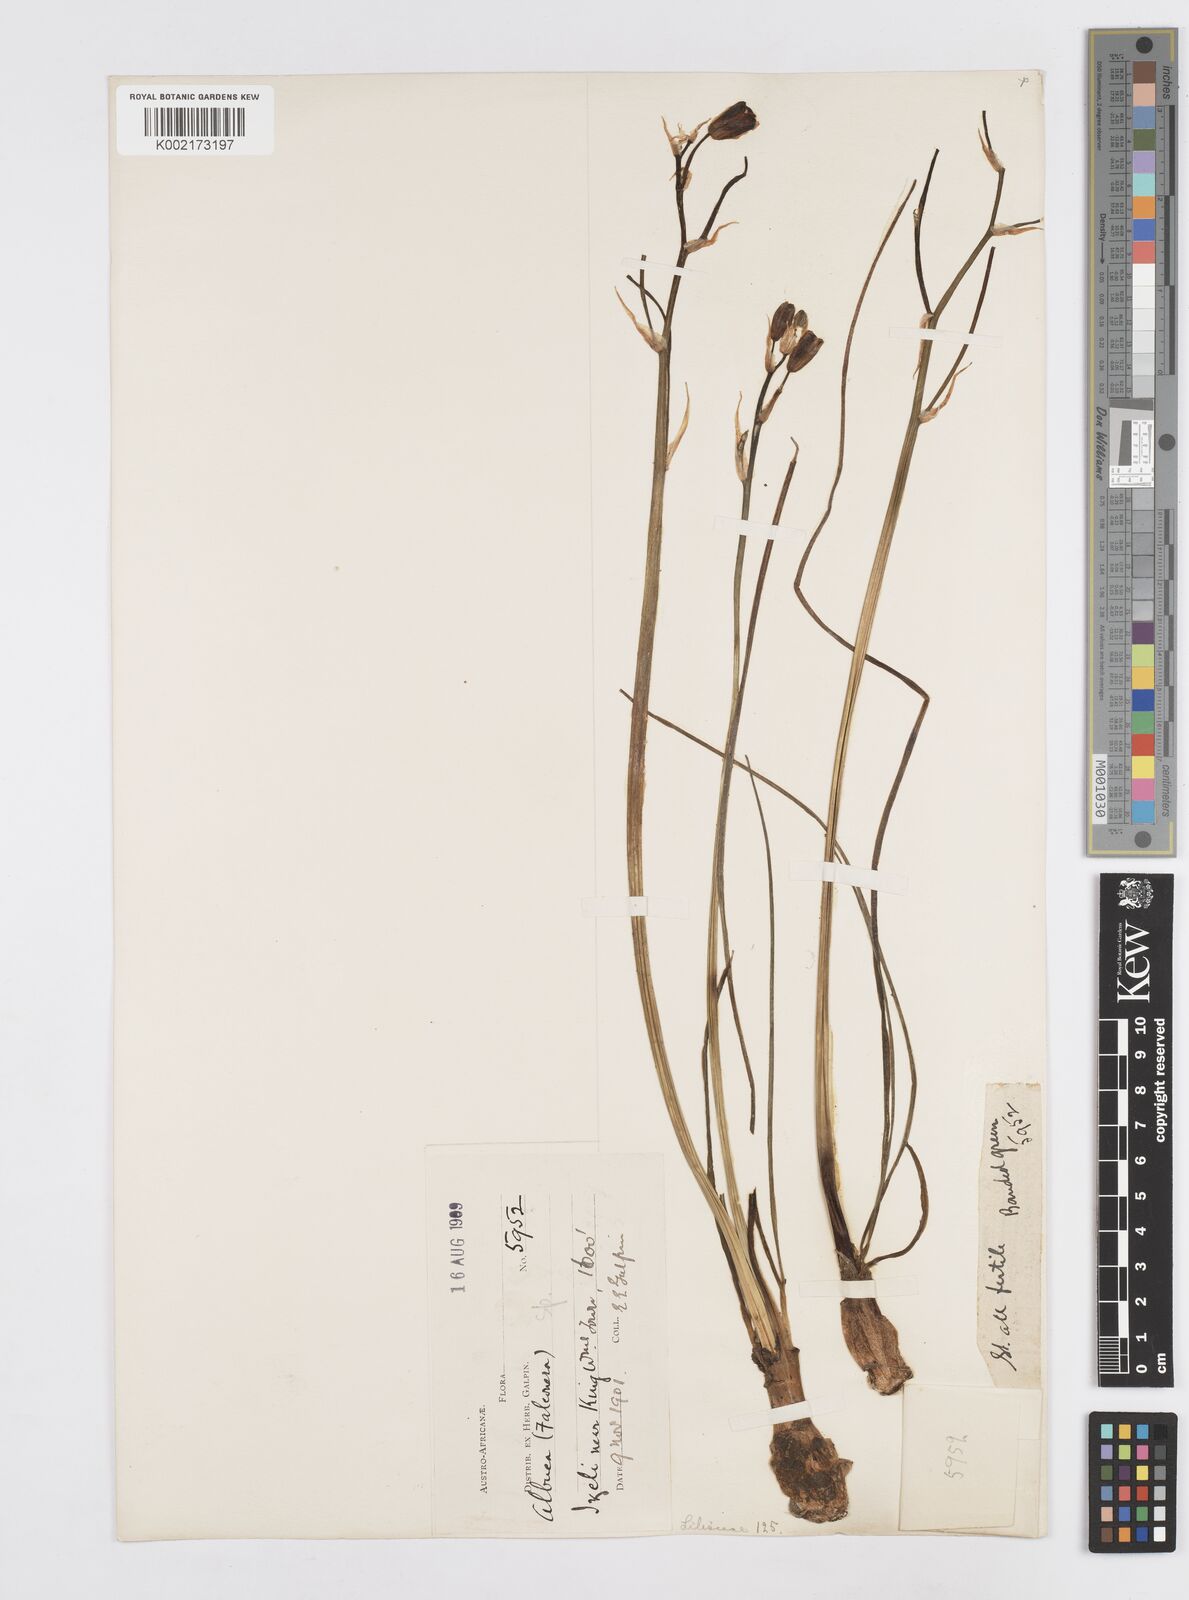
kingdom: Plantae
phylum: Tracheophyta
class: Liliopsida
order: Asparagales
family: Asparagaceae
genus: Albuca
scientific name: Albuca
